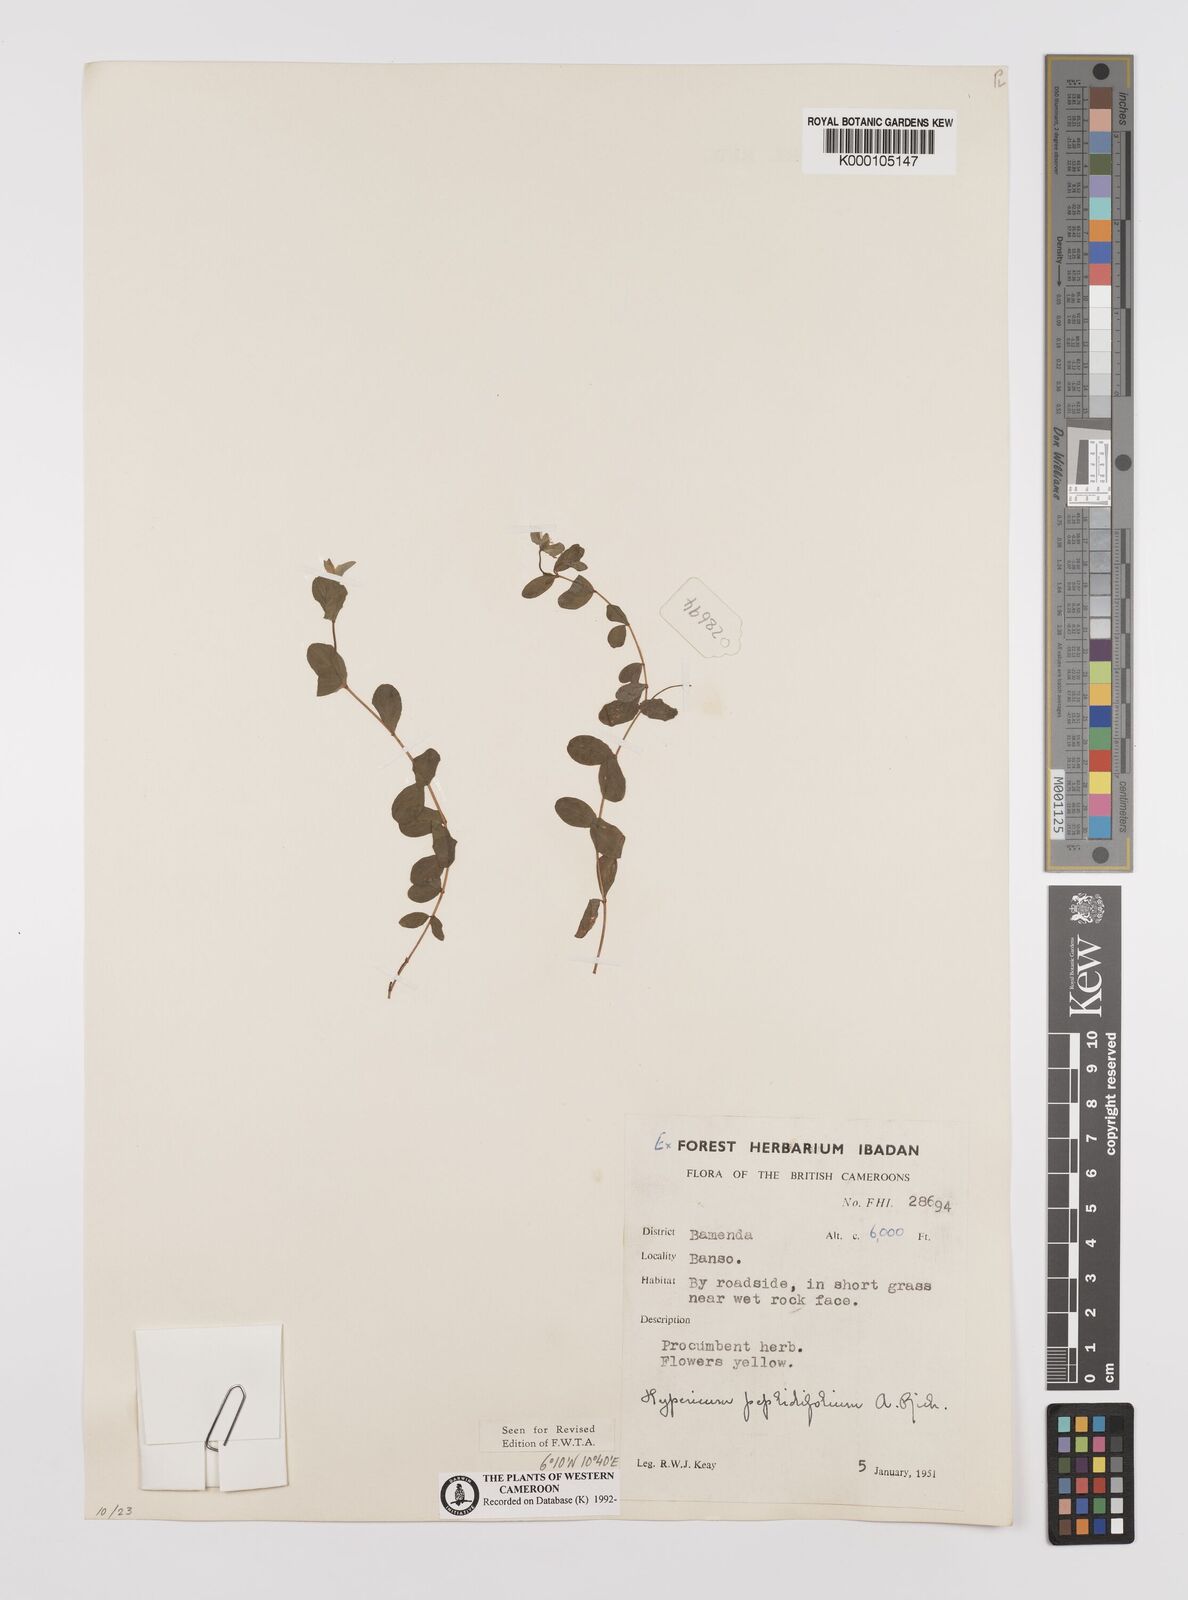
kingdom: Plantae
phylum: Tracheophyta
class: Magnoliopsida
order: Malpighiales
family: Hypericaceae
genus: Hypericum
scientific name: Hypericum peplidifolium
